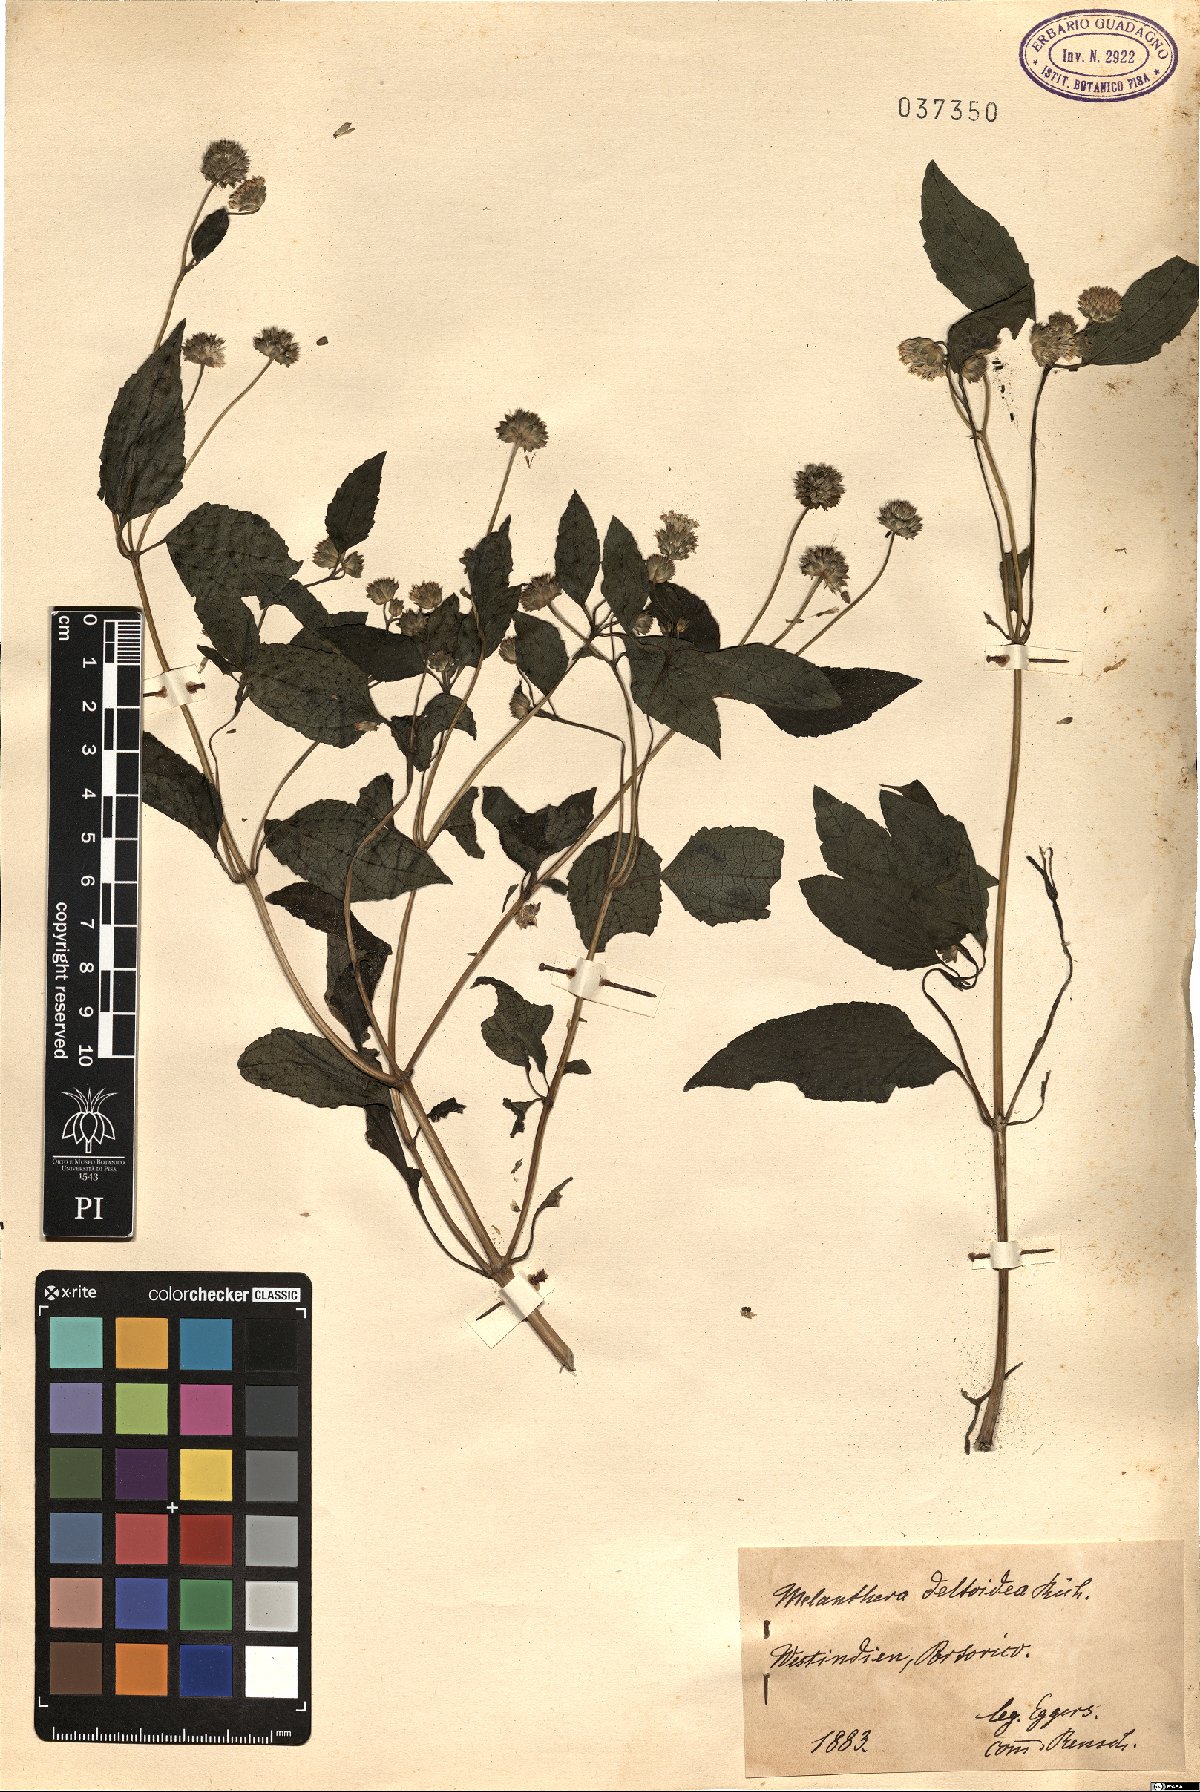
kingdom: Plantae
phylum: Tracheophyta
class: Magnoliopsida
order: Asterales
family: Asteraceae
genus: Melanthera
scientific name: Melanthera nivea
